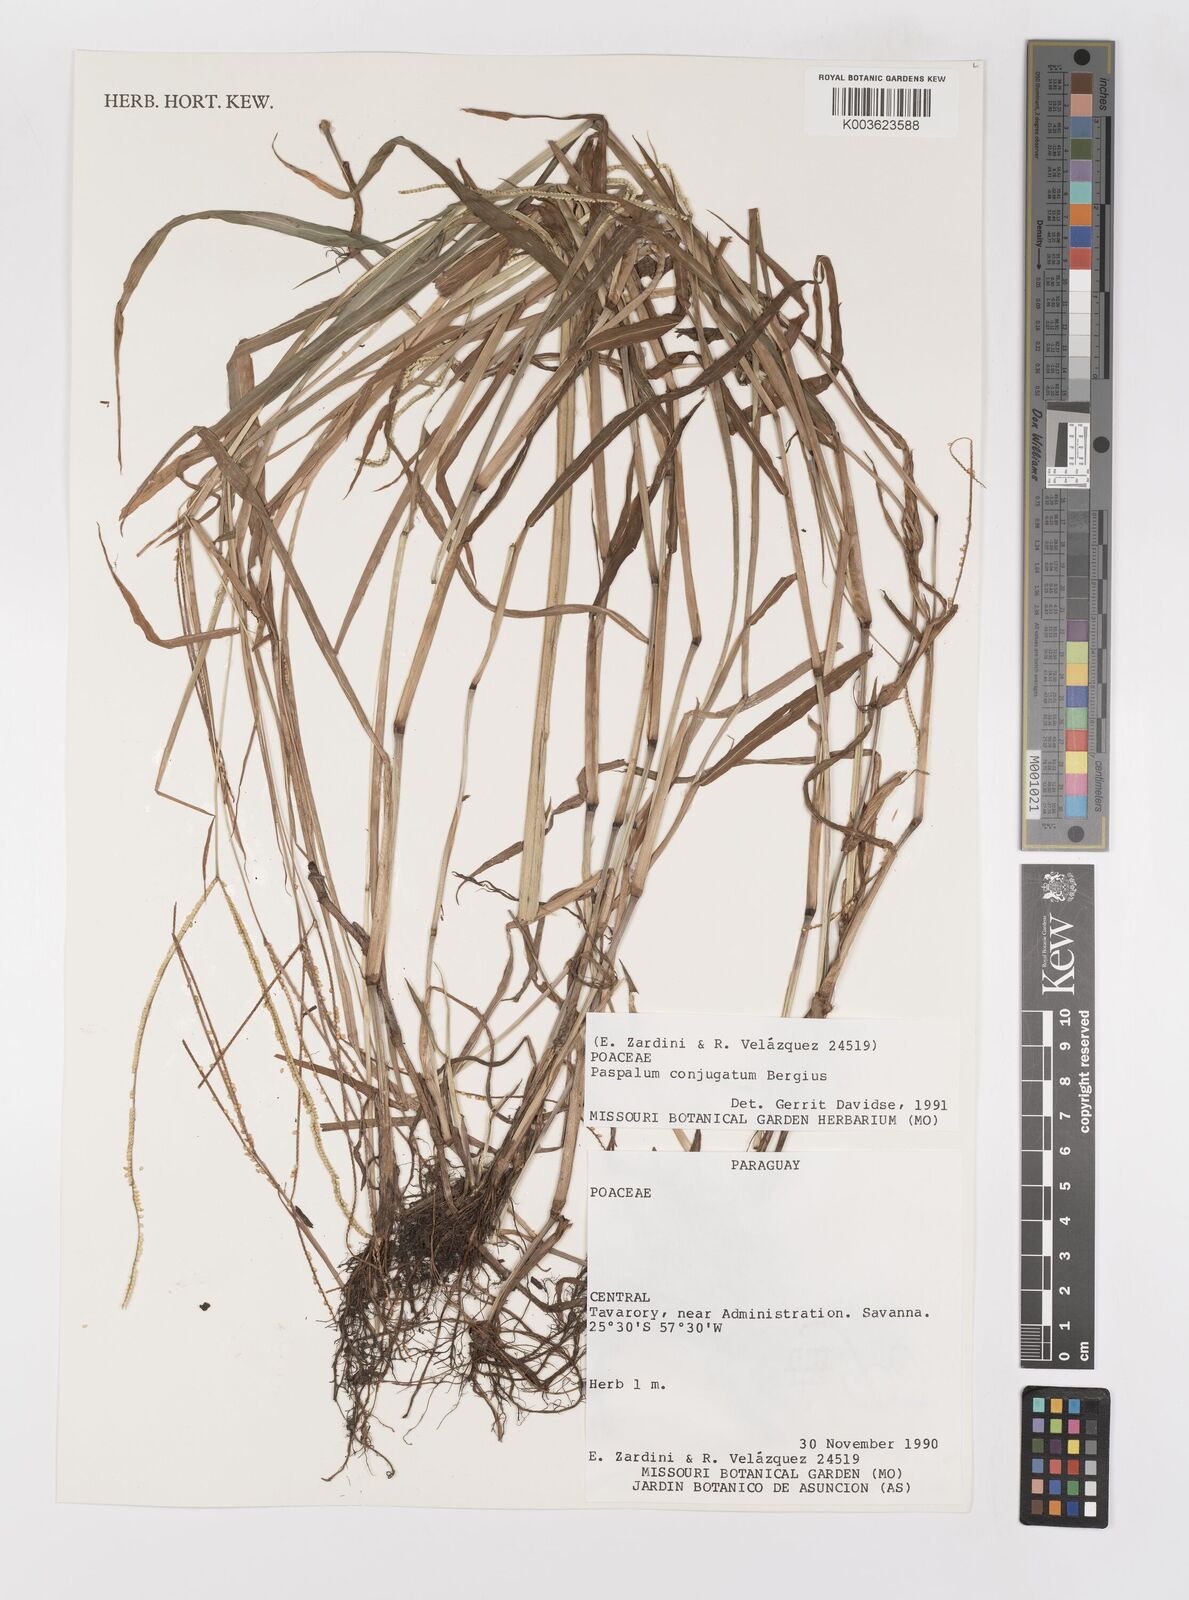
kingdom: Plantae
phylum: Tracheophyta
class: Liliopsida
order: Poales
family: Poaceae
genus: Paspalum
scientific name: Paspalum conjugatum
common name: Hilograss
